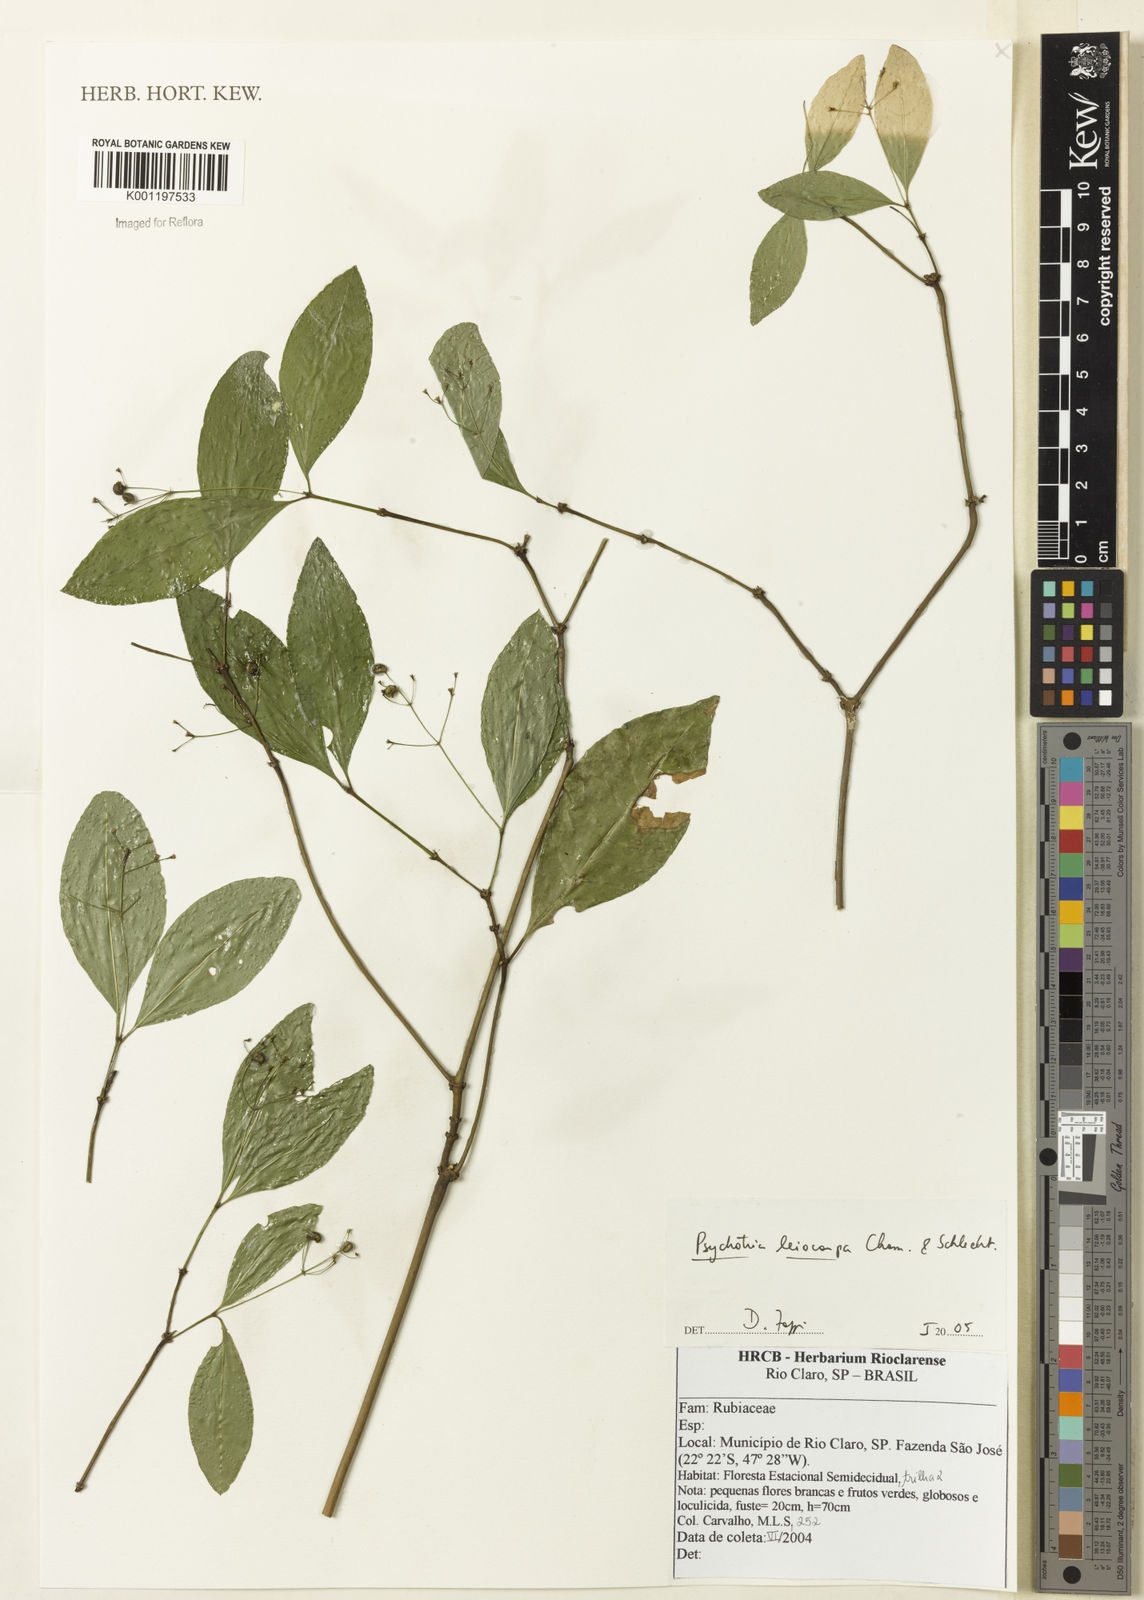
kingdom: Plantae
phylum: Tracheophyta
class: Magnoliopsida
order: Gentianales
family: Rubiaceae
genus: Psychotria
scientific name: Psychotria nemorosa
